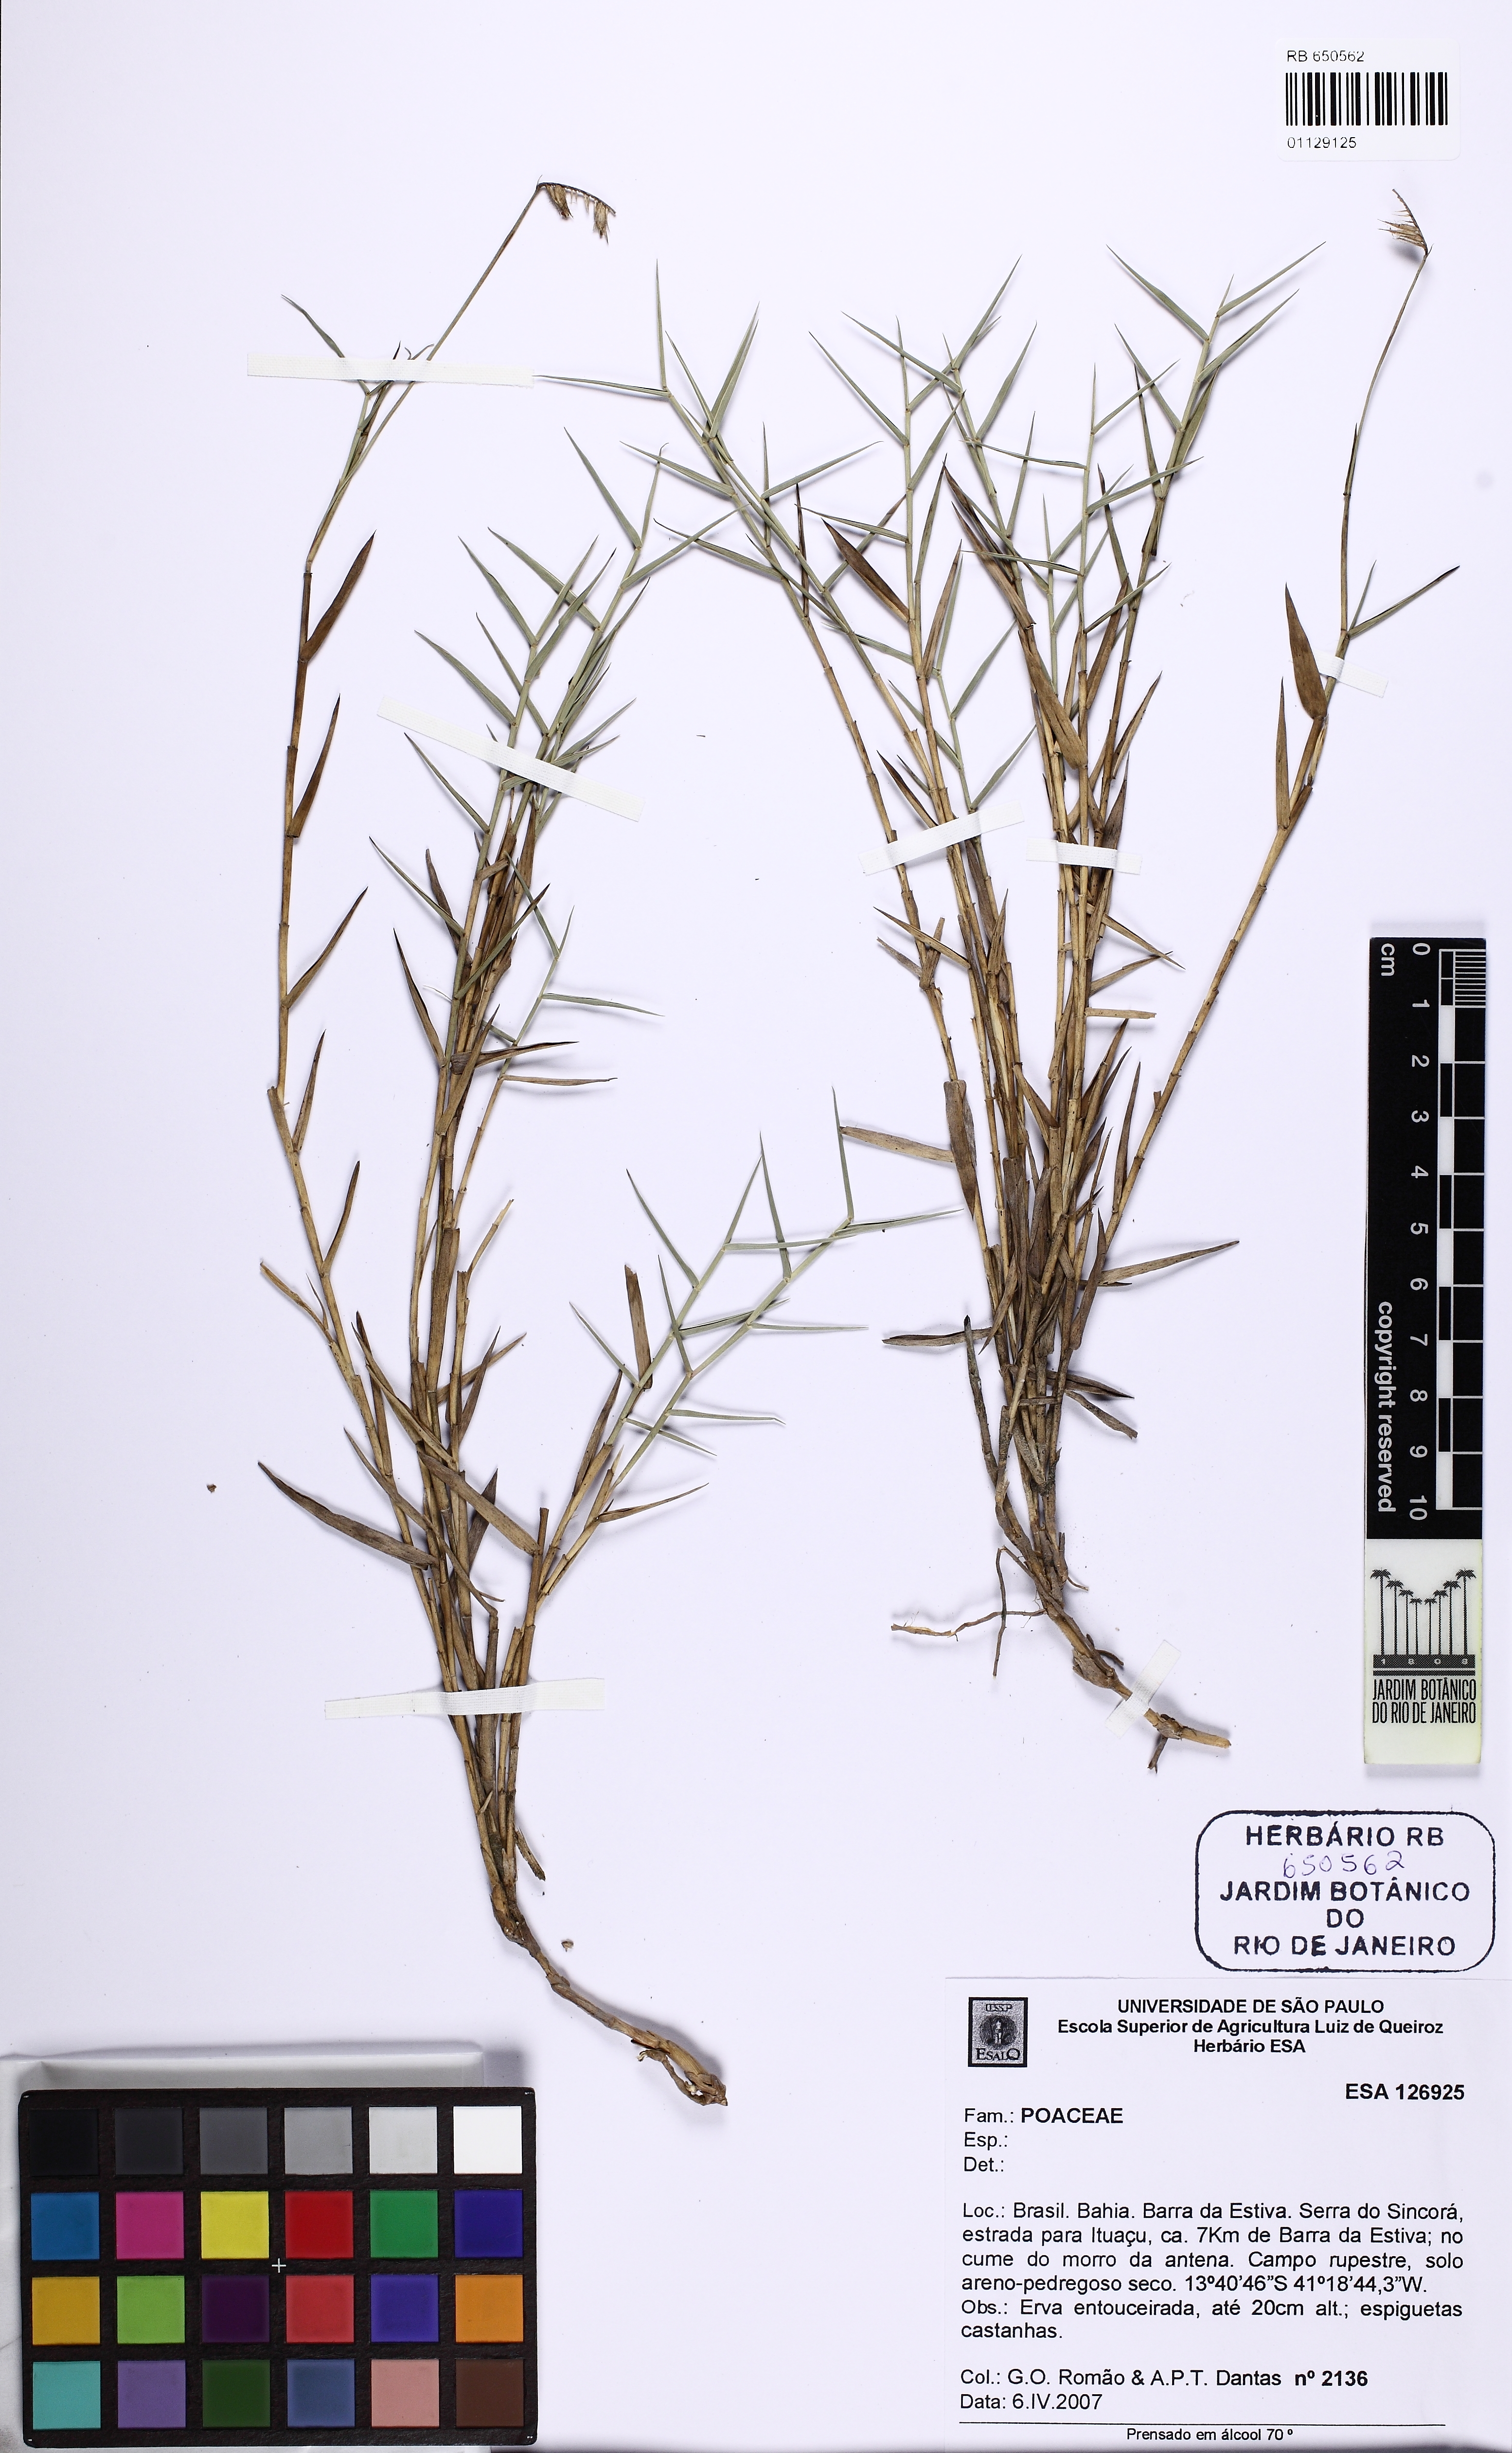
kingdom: Plantae
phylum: Tracheophyta
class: Liliopsida
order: Poales
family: Poaceae
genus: Echinolaena
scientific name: Echinolaena inflexa
